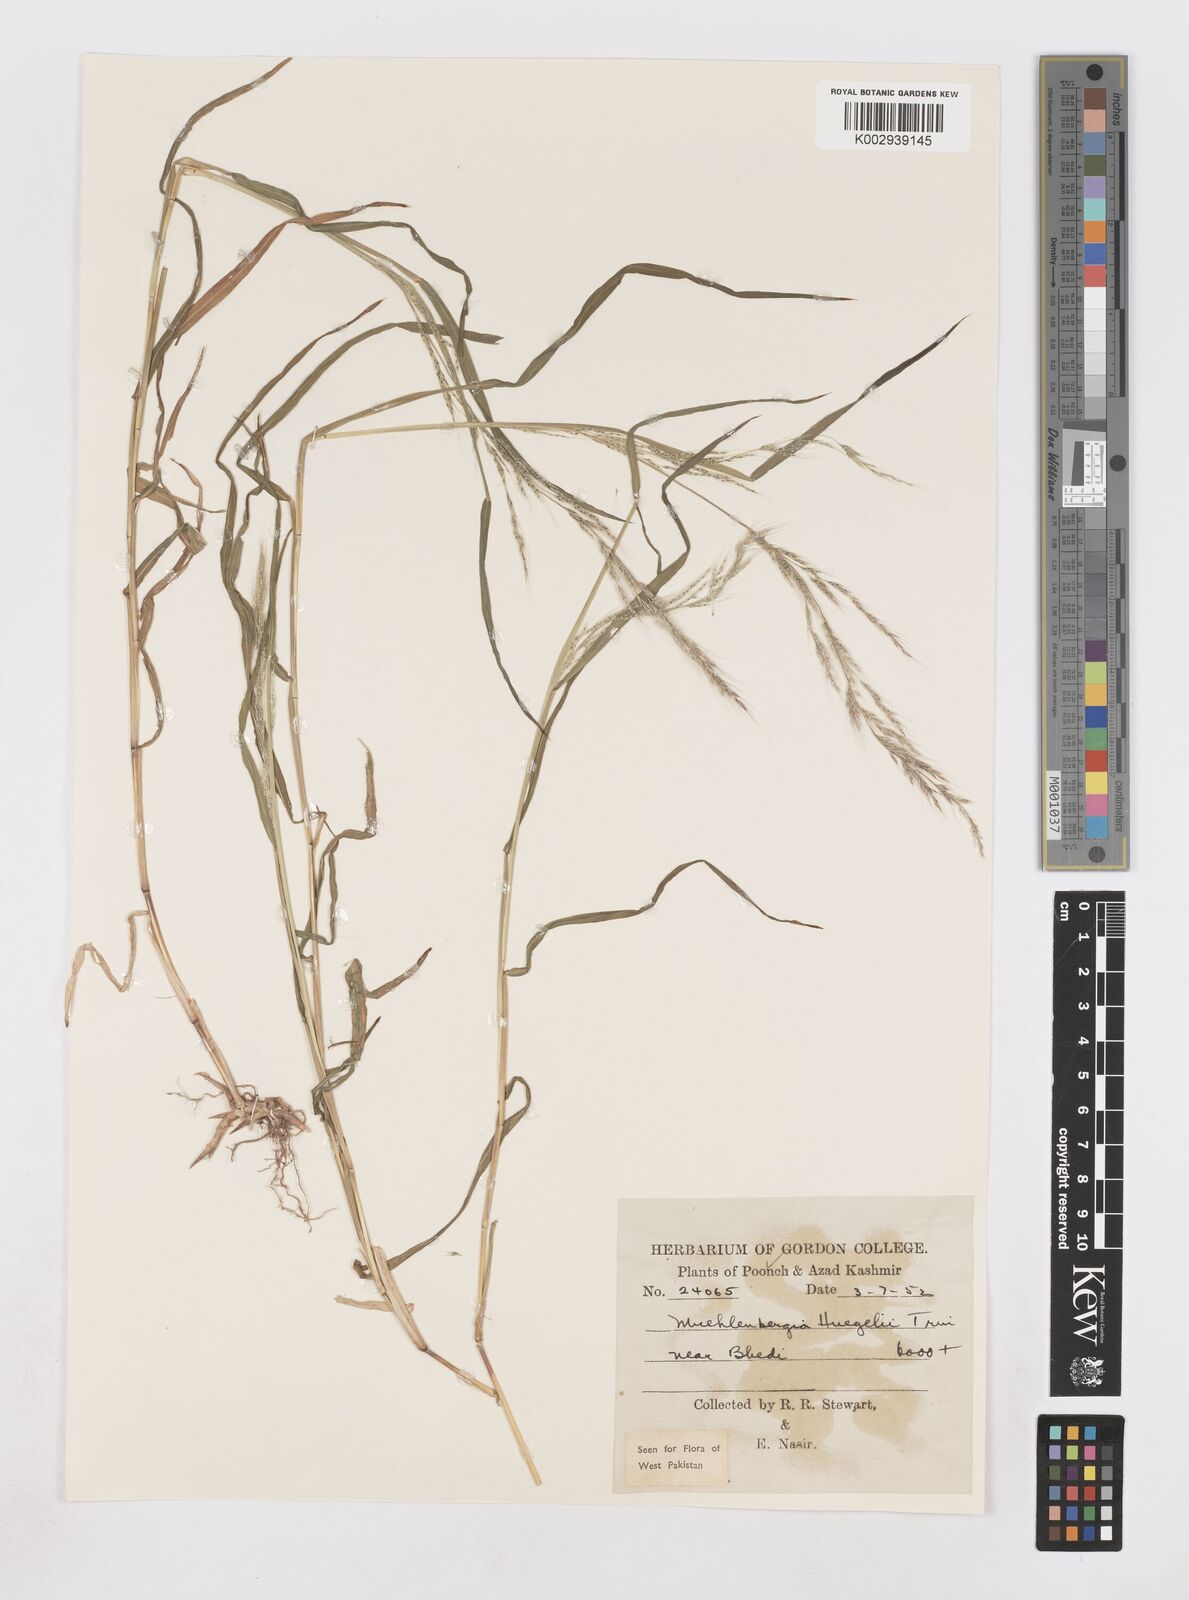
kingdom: Plantae
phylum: Tracheophyta
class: Liliopsida
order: Poales
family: Poaceae
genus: Muhlenbergia
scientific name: Muhlenbergia huegelii
